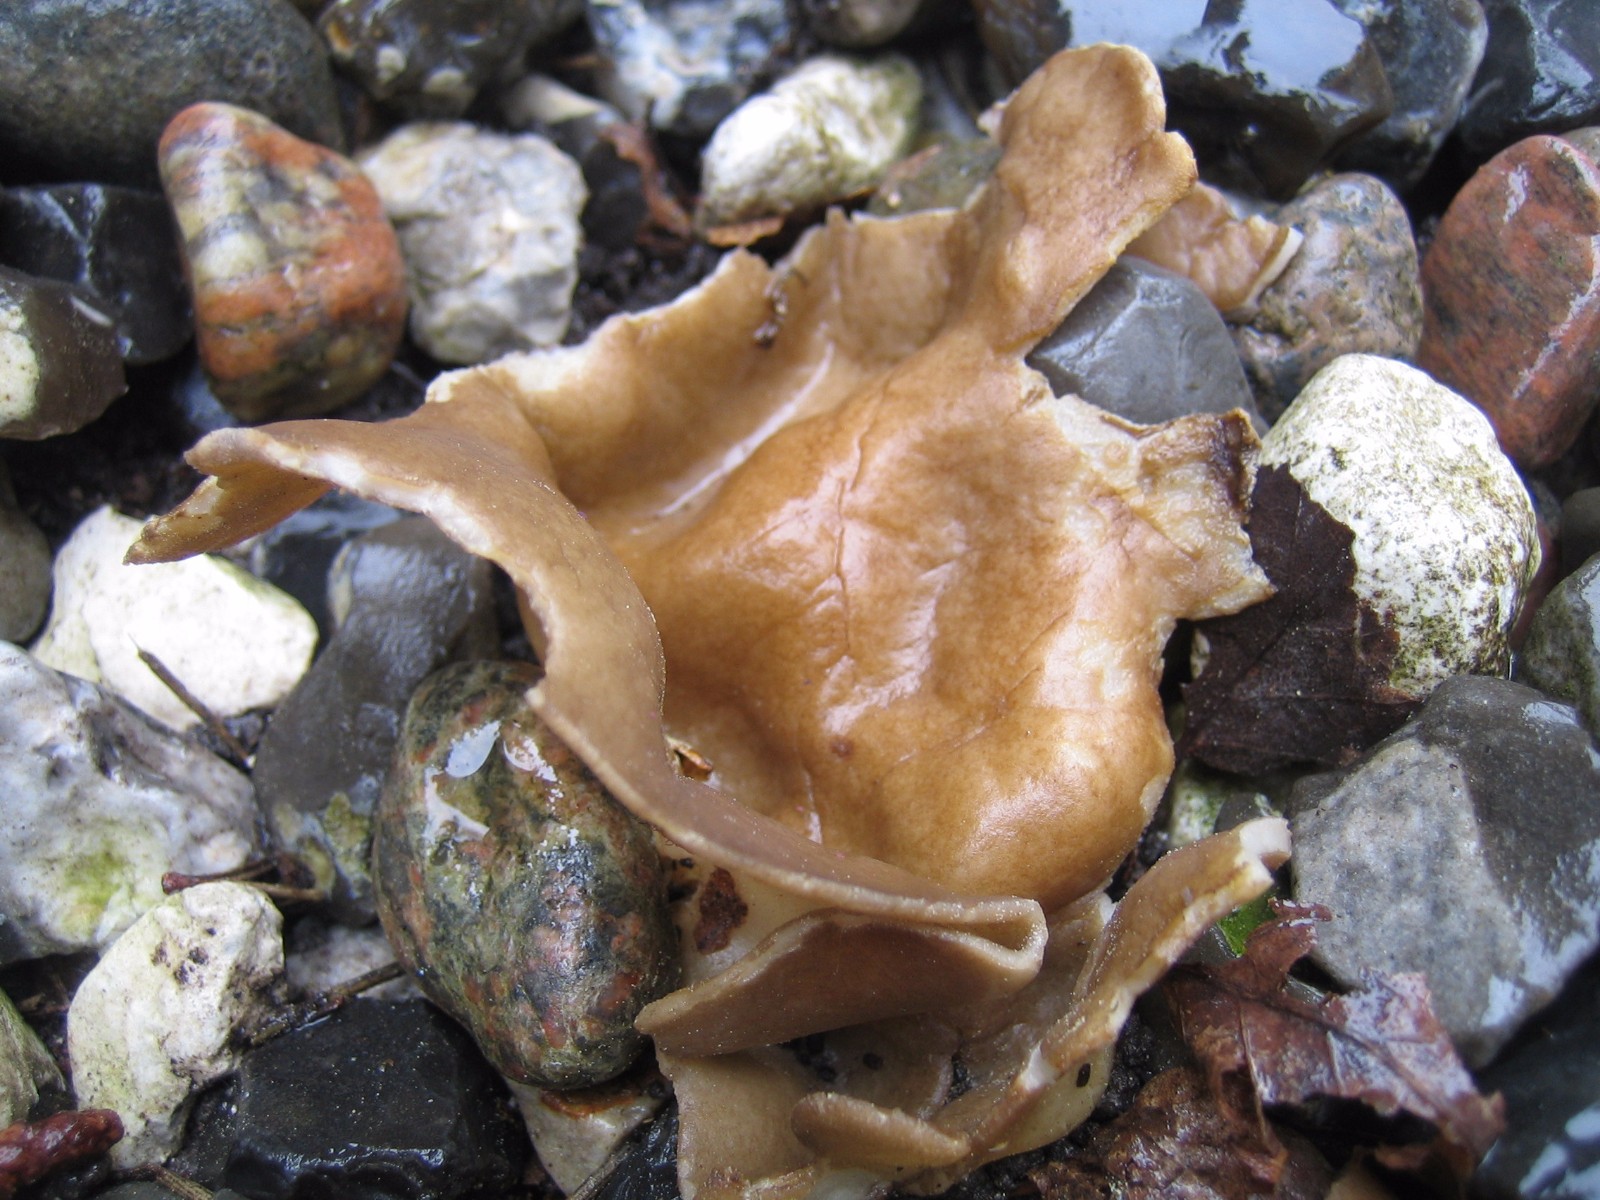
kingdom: Fungi
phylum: Ascomycota
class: Pezizomycetes
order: Pezizales
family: Helvellaceae
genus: Helvella
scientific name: Helvella acetabulum
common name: pokal-foldhat
